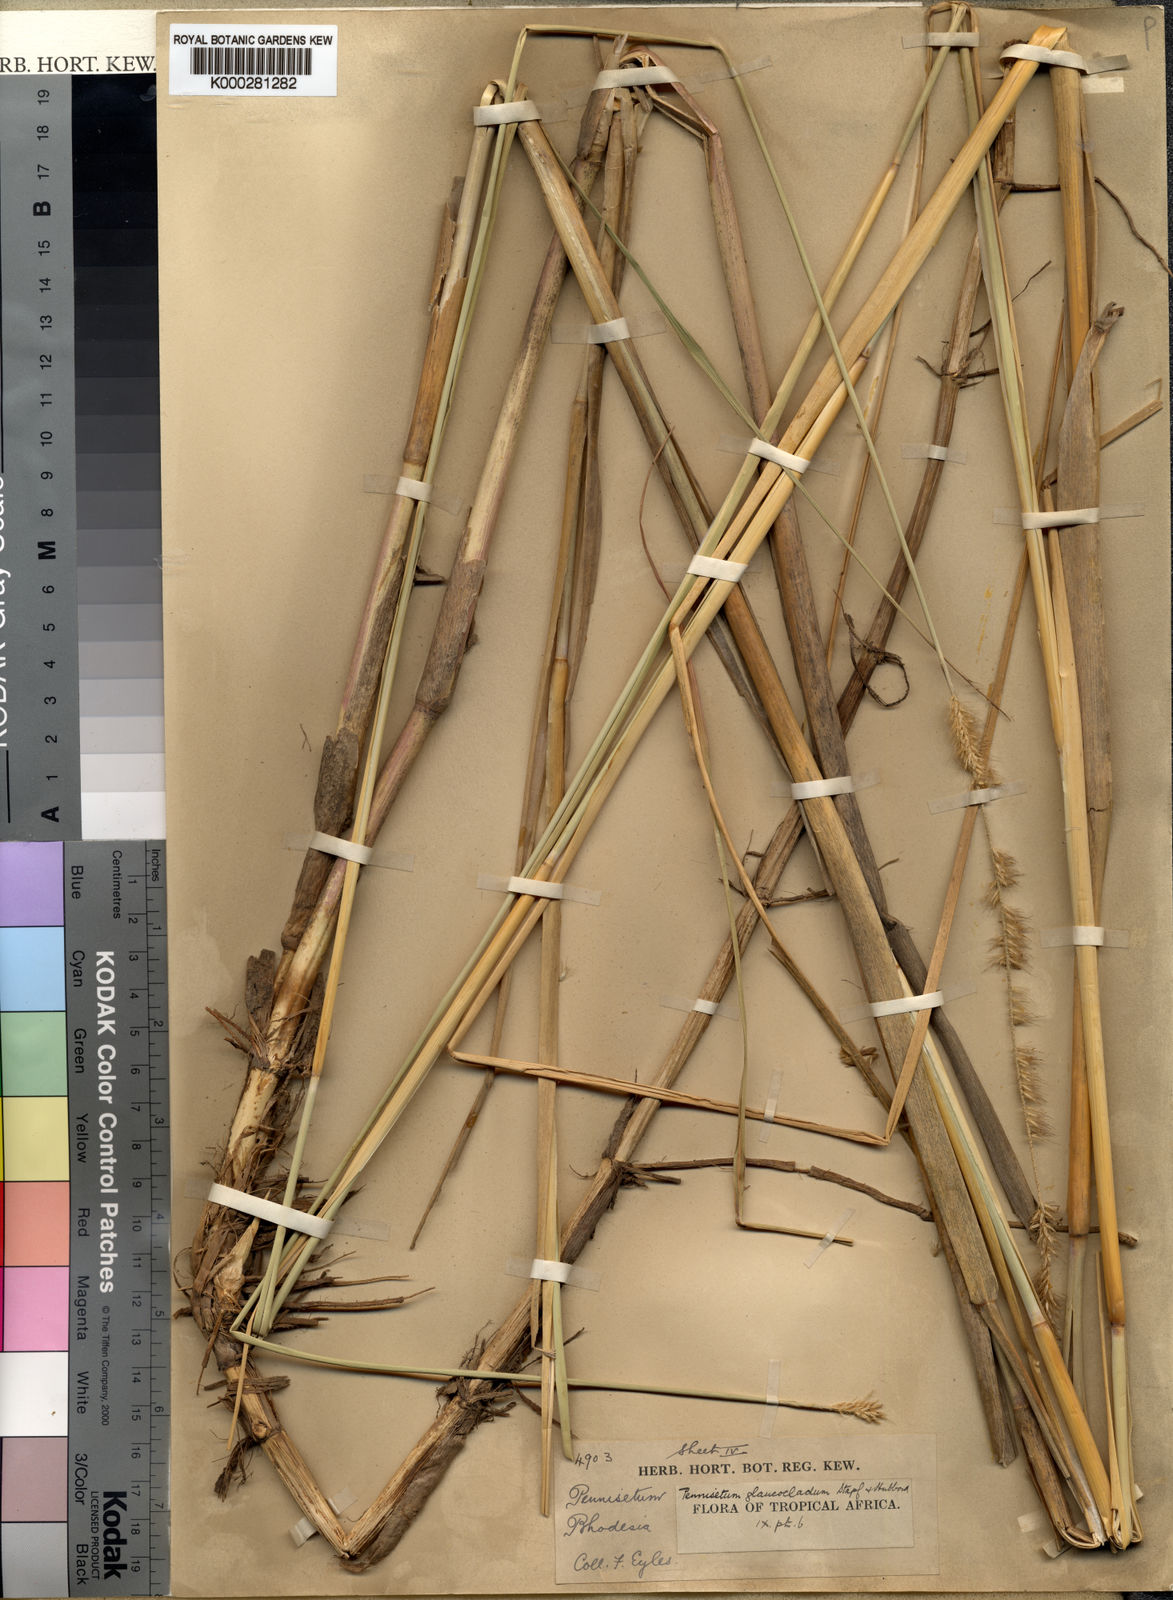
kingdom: Plantae
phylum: Tracheophyta
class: Liliopsida
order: Poales
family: Poaceae
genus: Cenchrus
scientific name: Cenchrus caudatus
